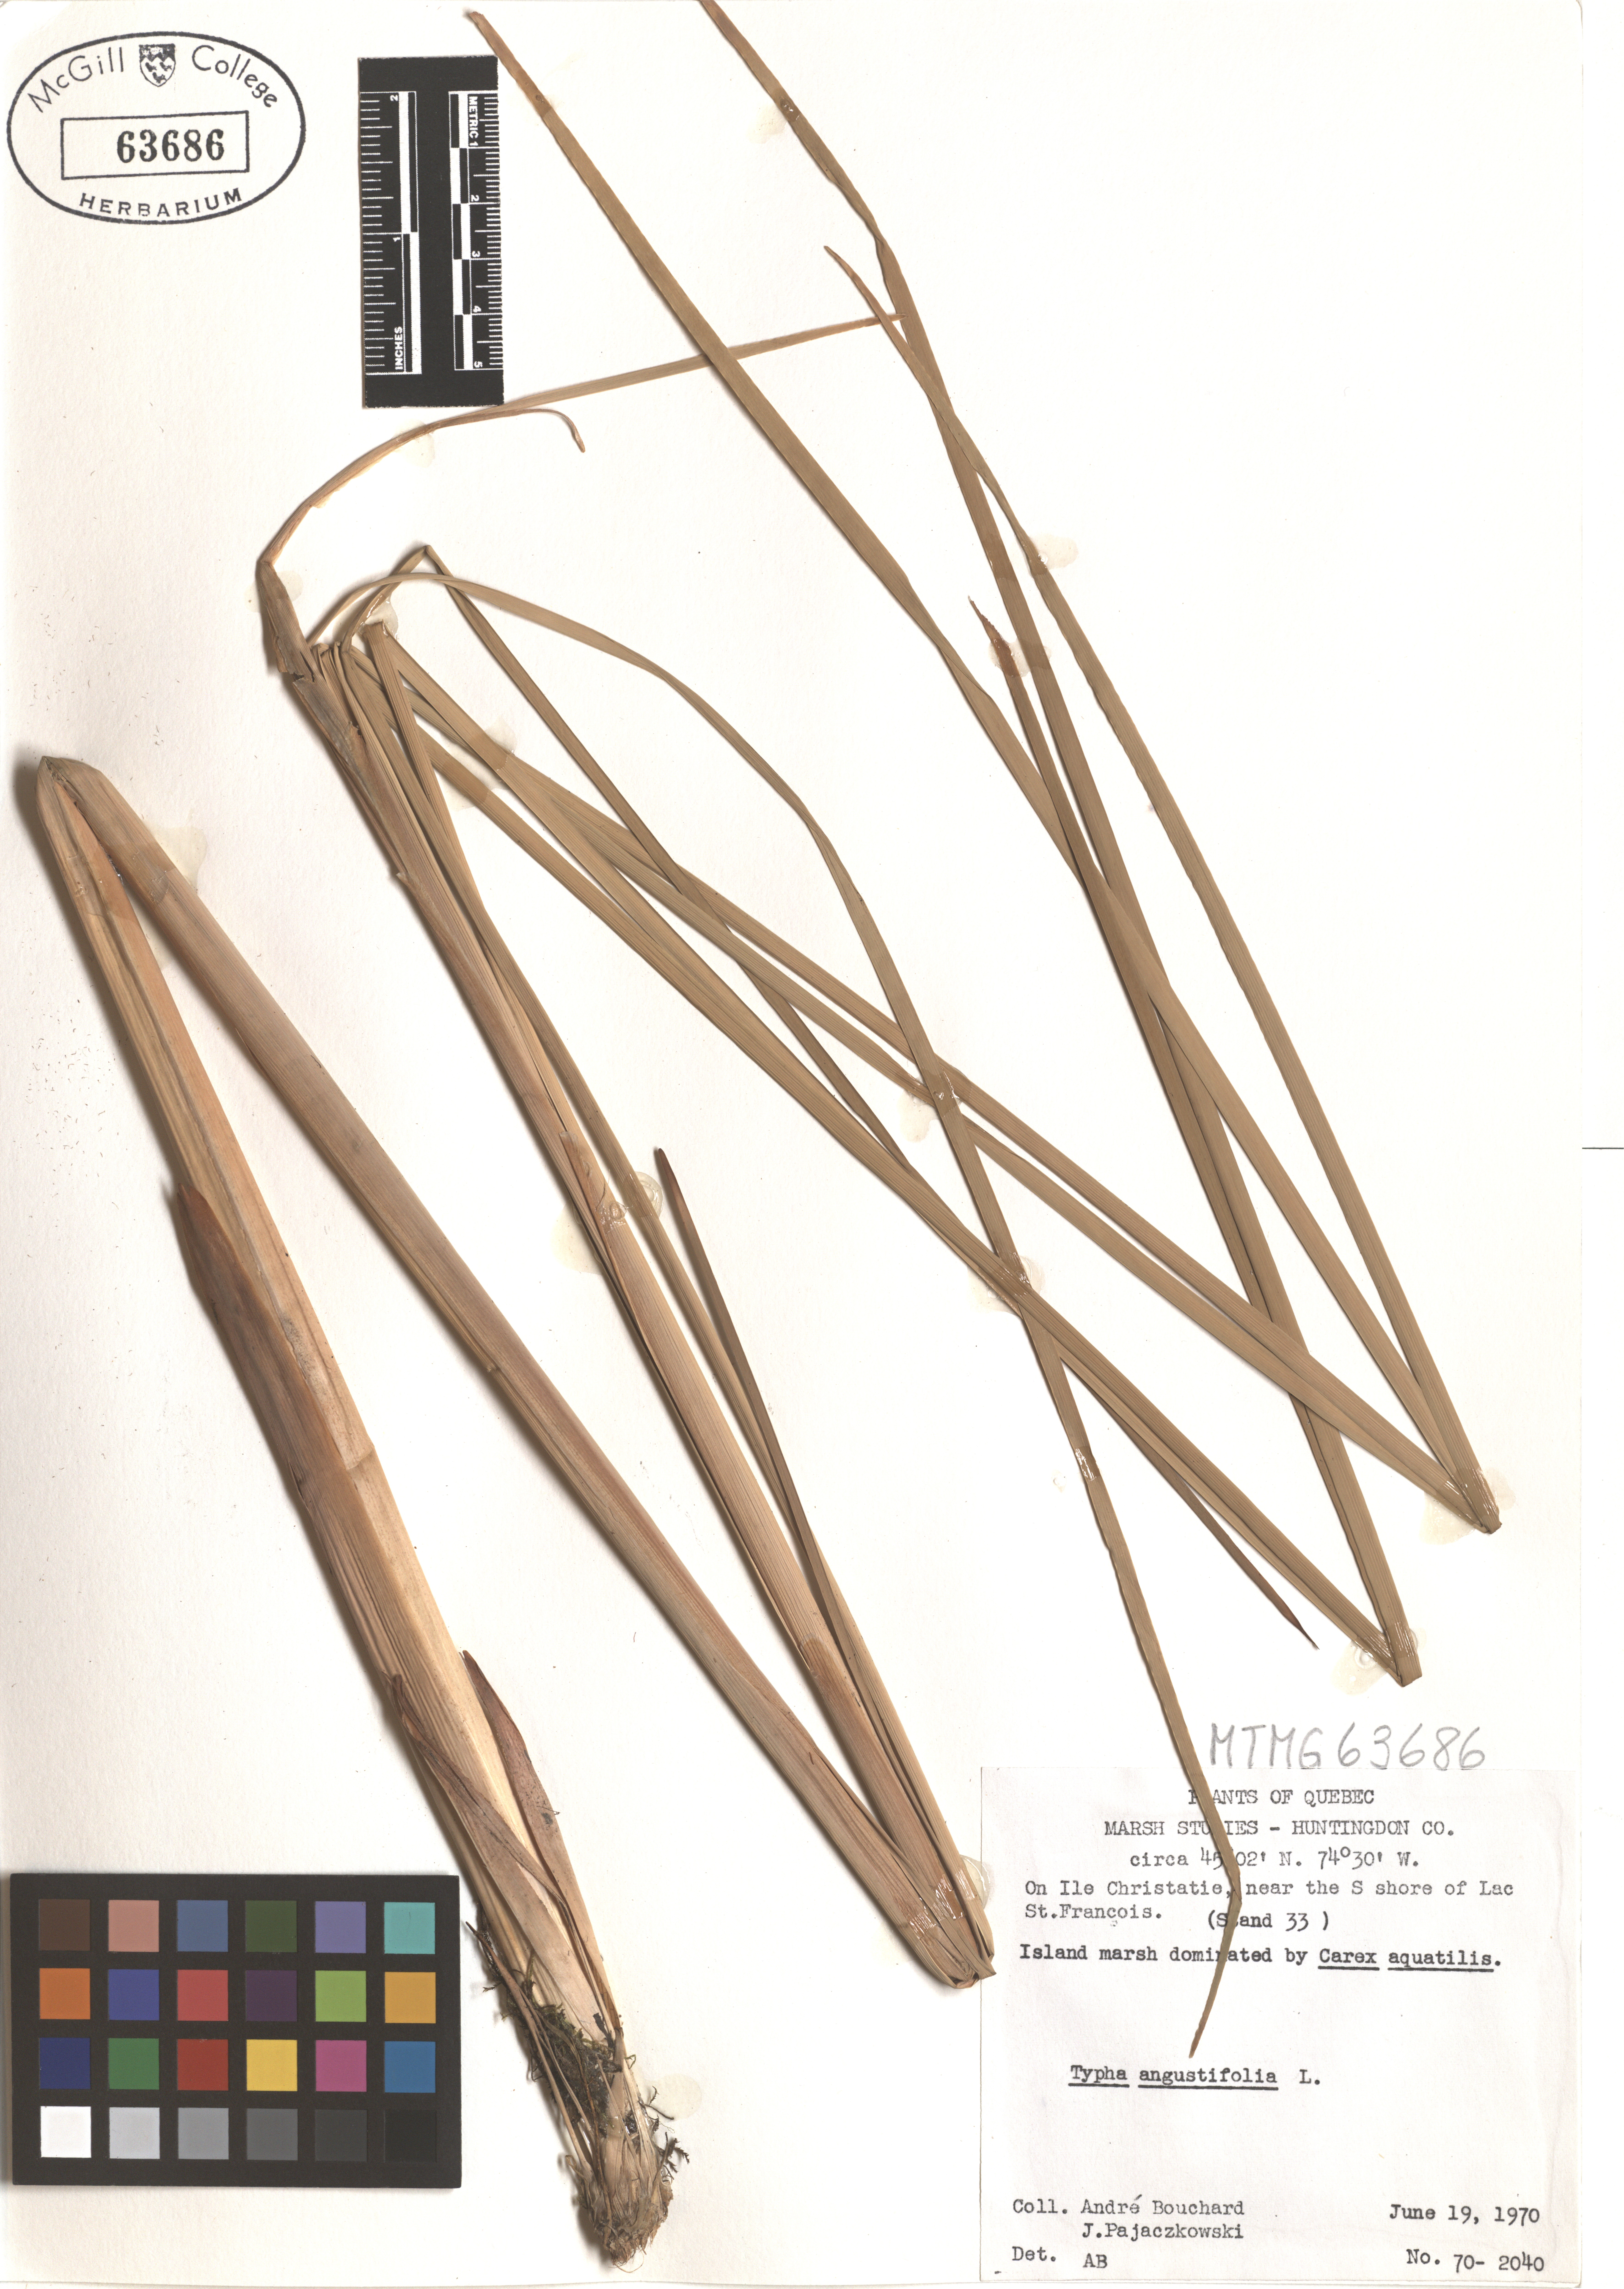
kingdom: Plantae
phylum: Tracheophyta
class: Liliopsida
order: Poales
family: Typhaceae
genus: Typha
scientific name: Typha angustifolia
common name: Lesser bulrush
